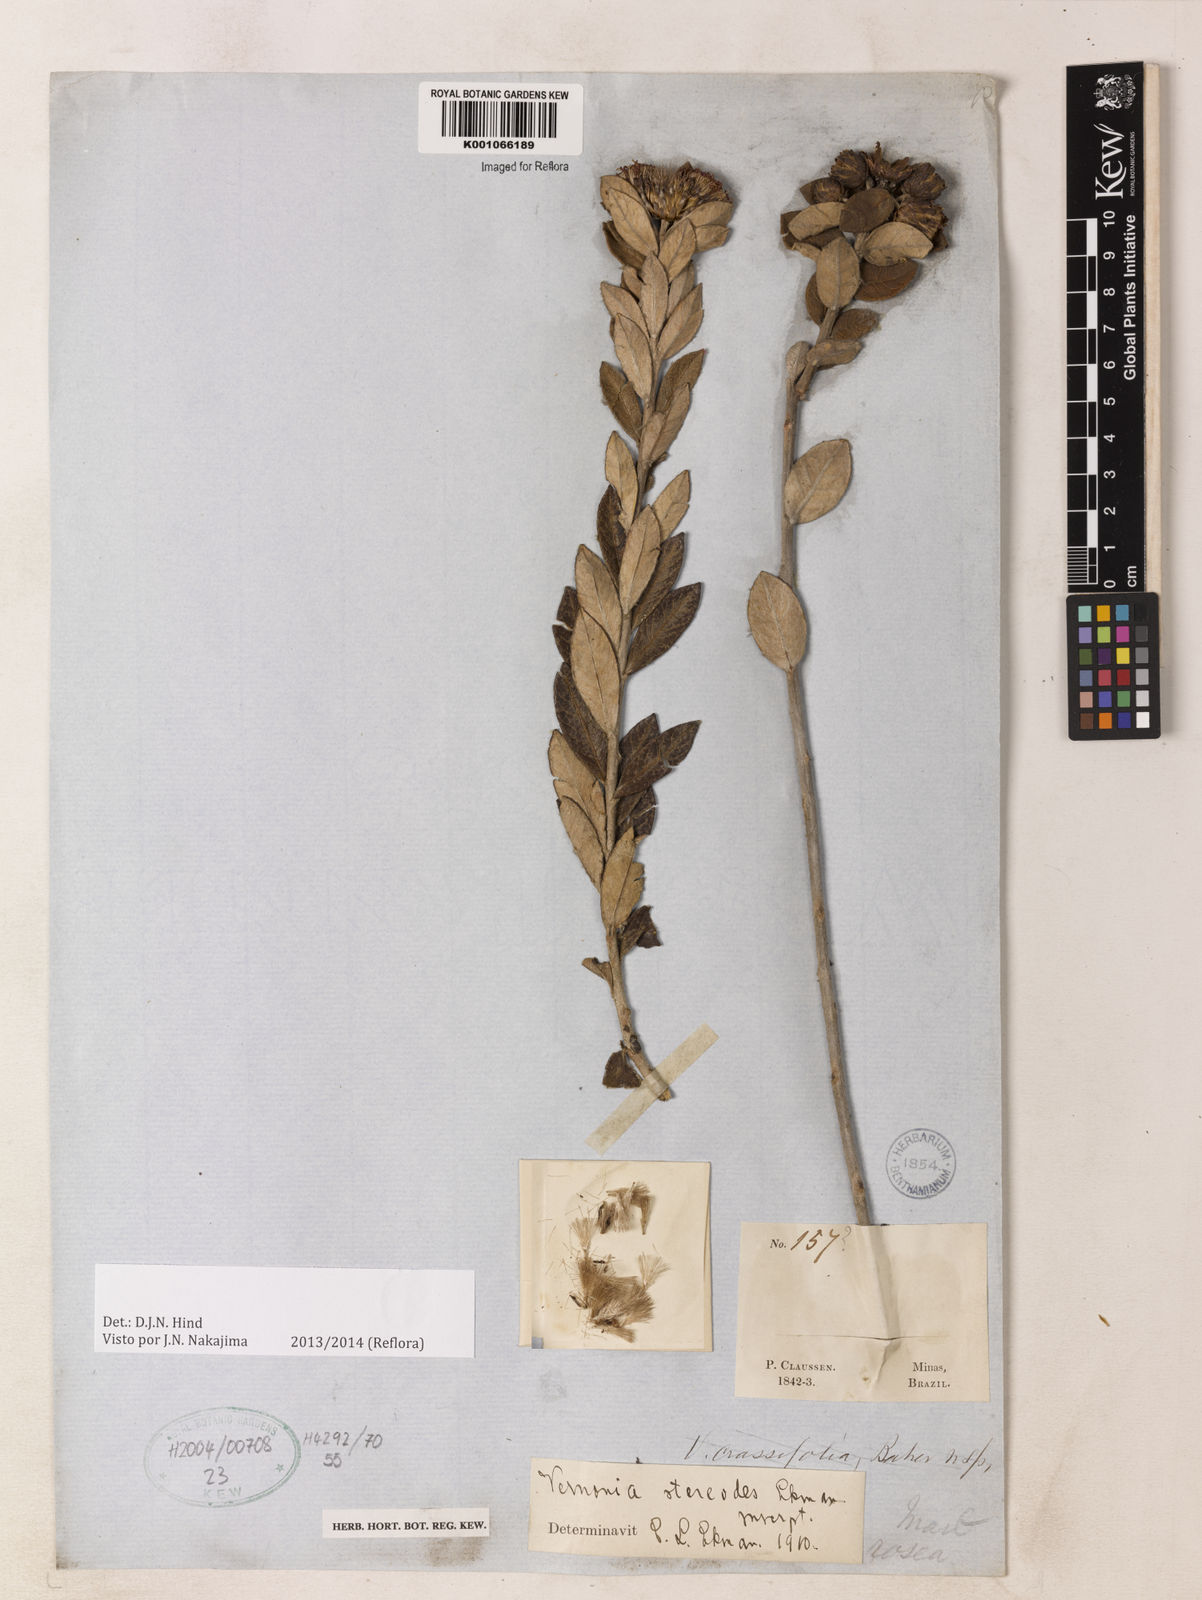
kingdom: Plantae
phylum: Tracheophyta
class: Magnoliopsida
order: Asterales
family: Asteraceae
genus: Vernonia
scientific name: Vernonia
